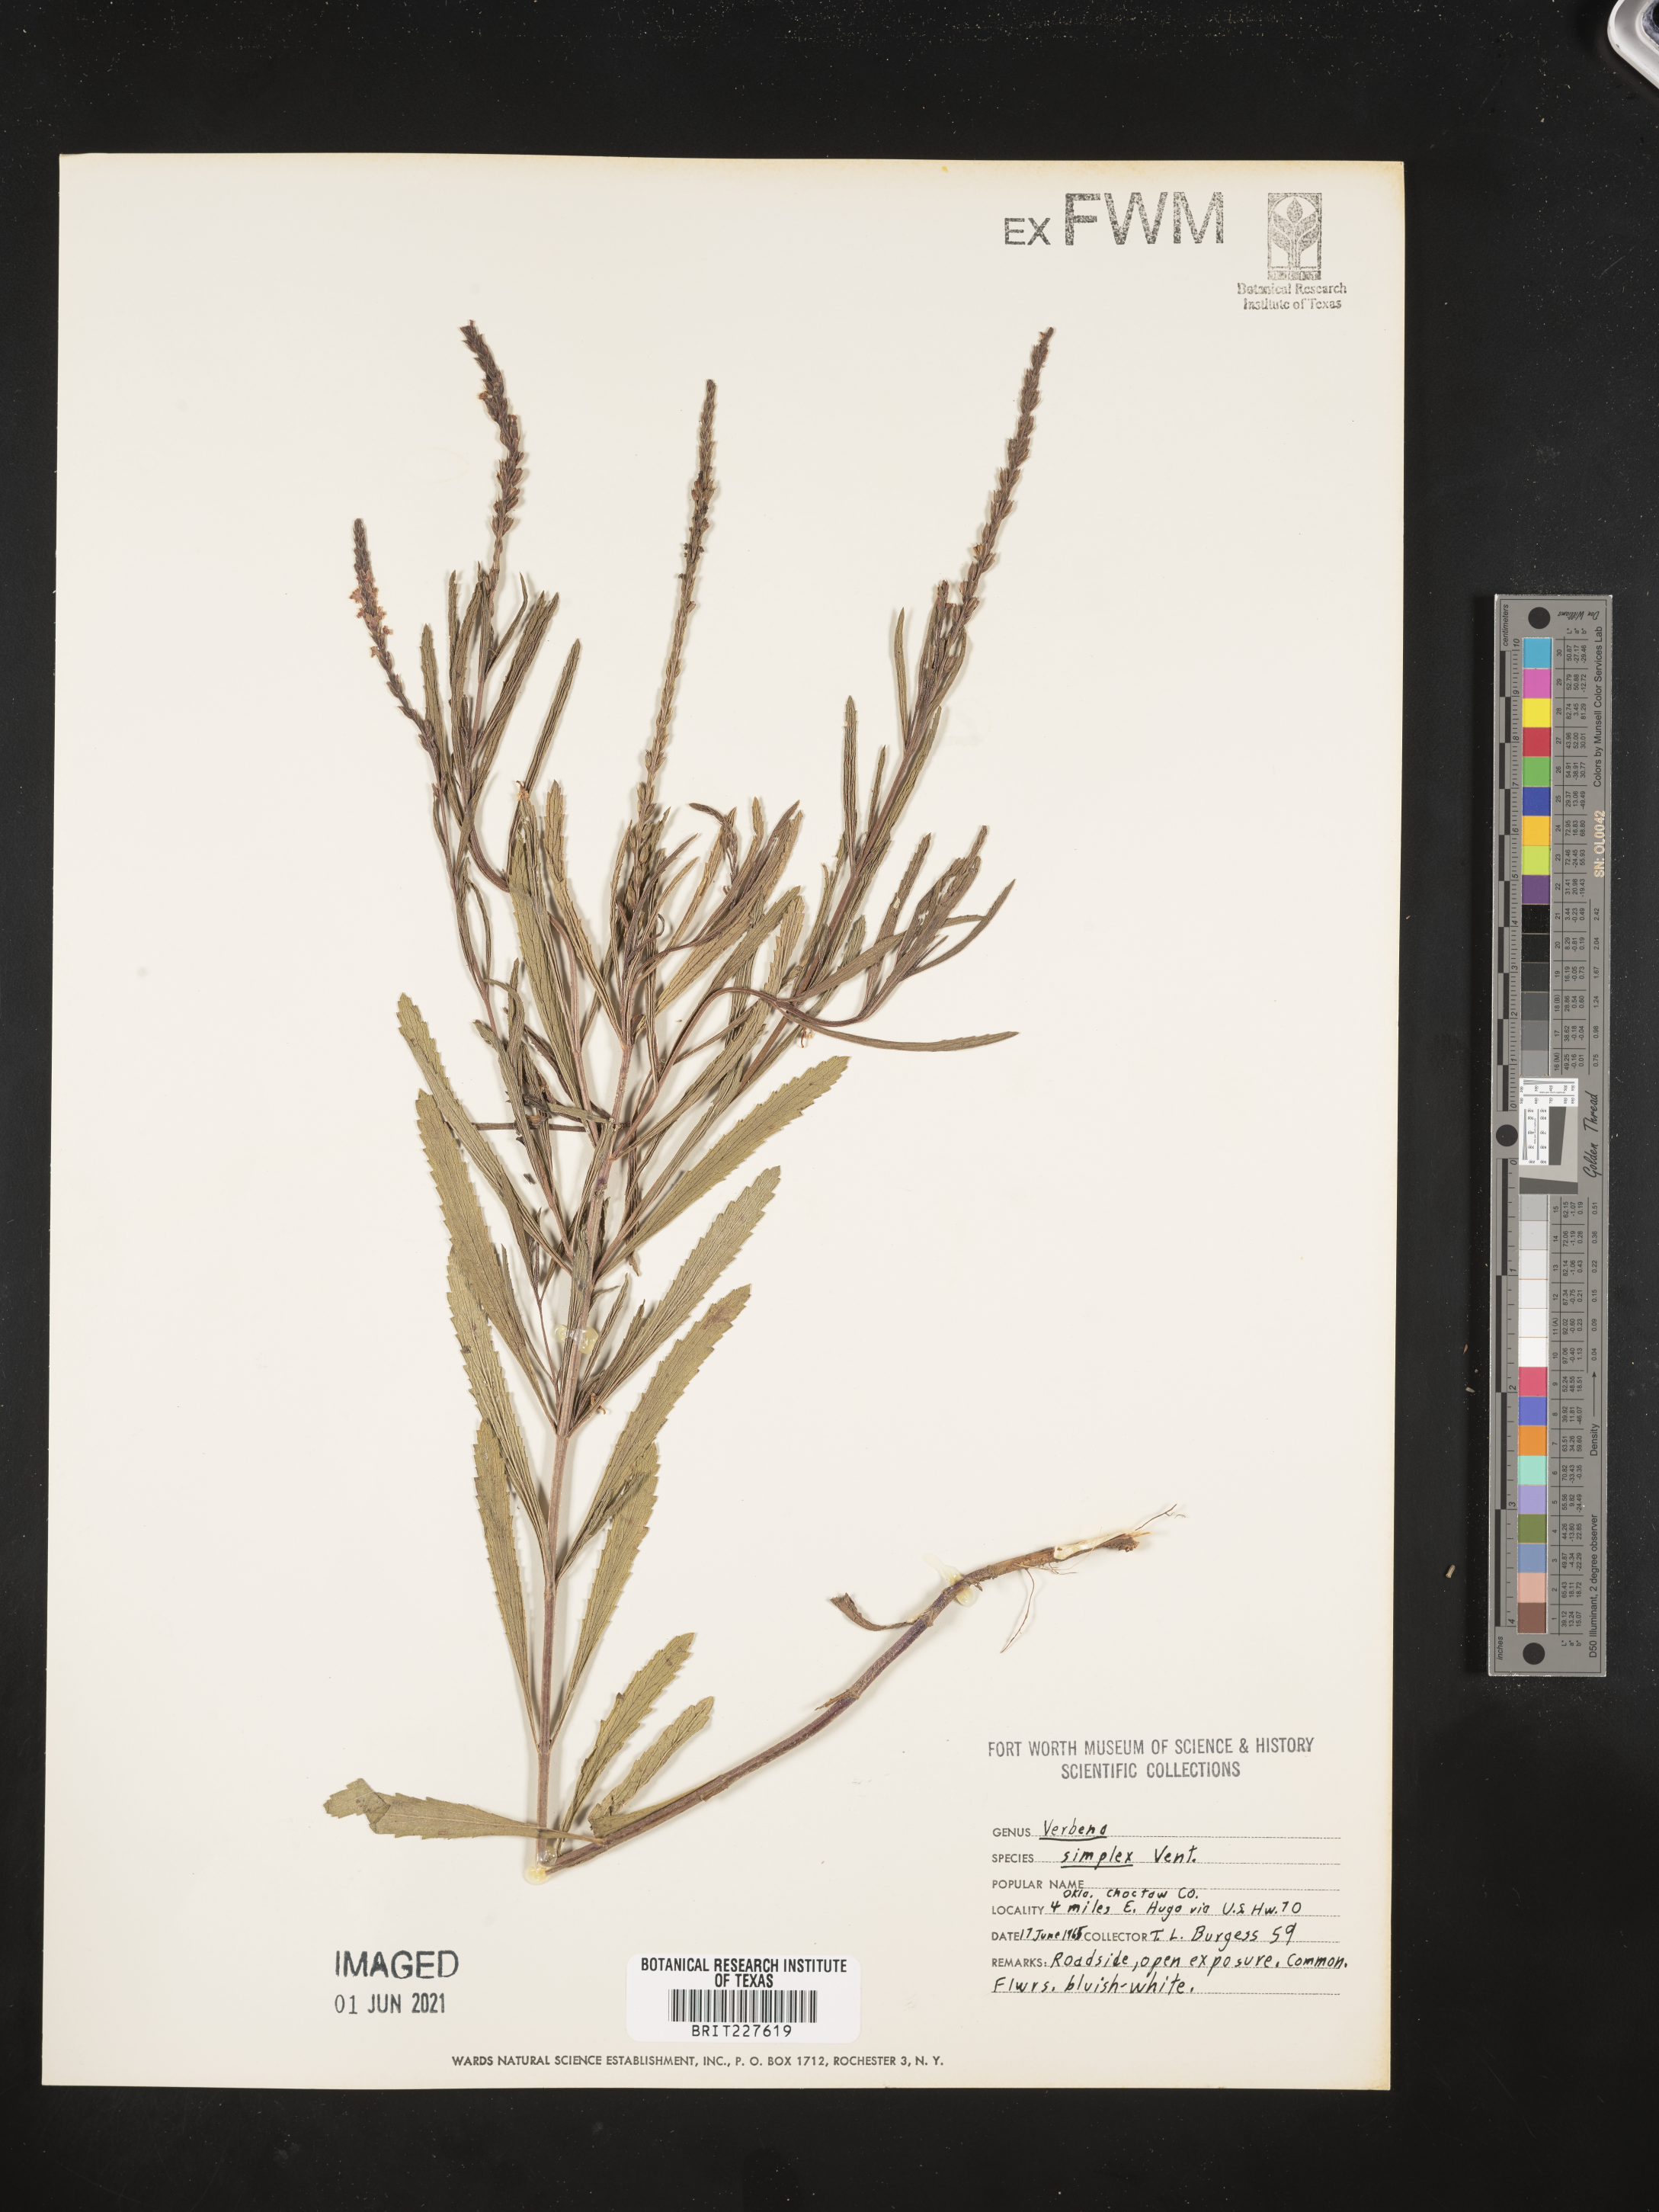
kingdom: Plantae
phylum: Tracheophyta
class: Magnoliopsida
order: Lamiales
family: Verbenaceae
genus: Verbena
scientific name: Verbena simplex
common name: Narrow-leaf vervain
